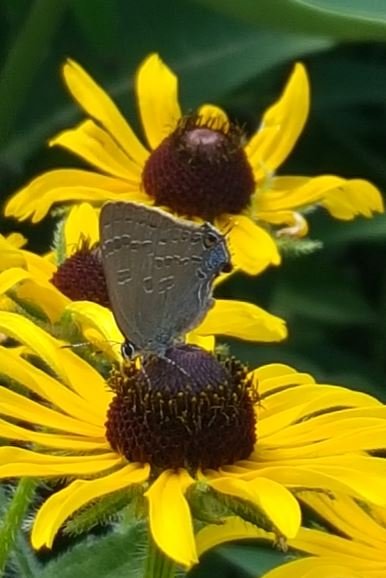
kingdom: Animalia
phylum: Arthropoda
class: Insecta
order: Lepidoptera
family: Lycaenidae
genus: Strymon
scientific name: Strymon caryaevorus
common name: Hickory Hairstreak
